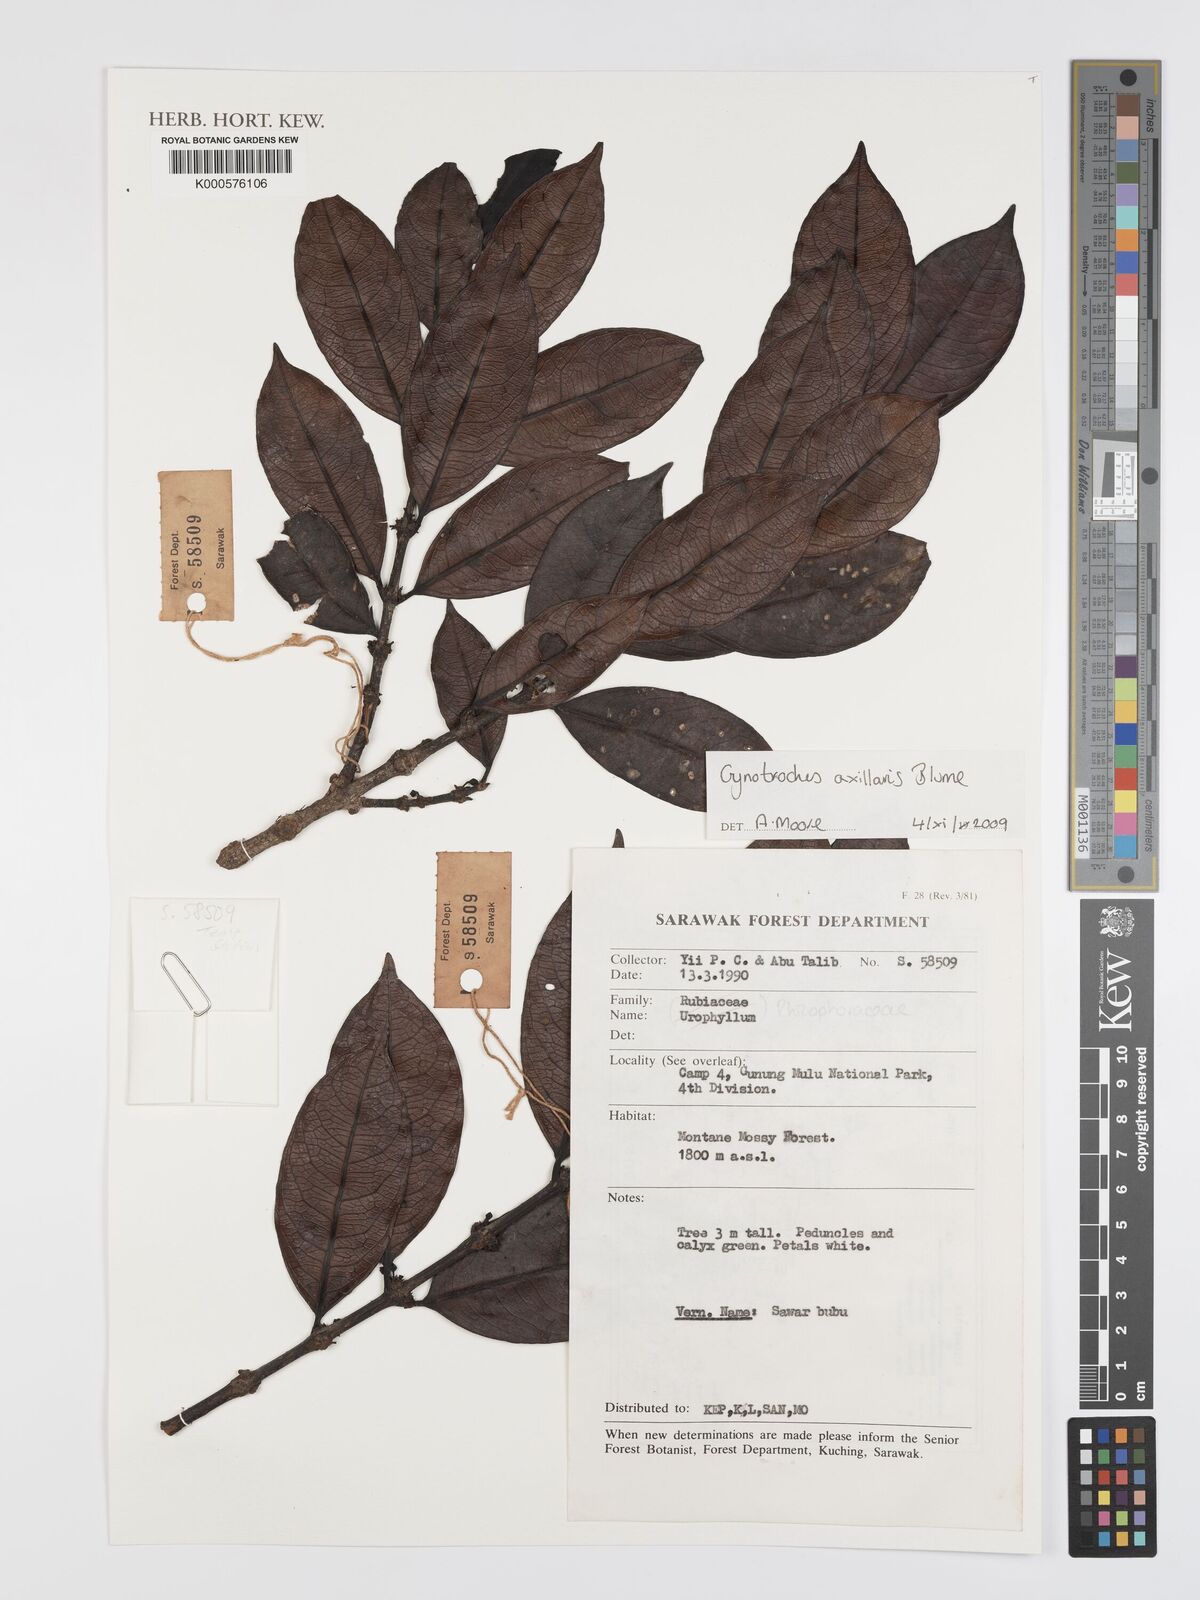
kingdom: Plantae
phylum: Tracheophyta
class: Magnoliopsida
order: Malpighiales
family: Rhizophoraceae
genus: Gynotroches
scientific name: Gynotroches axillaris
